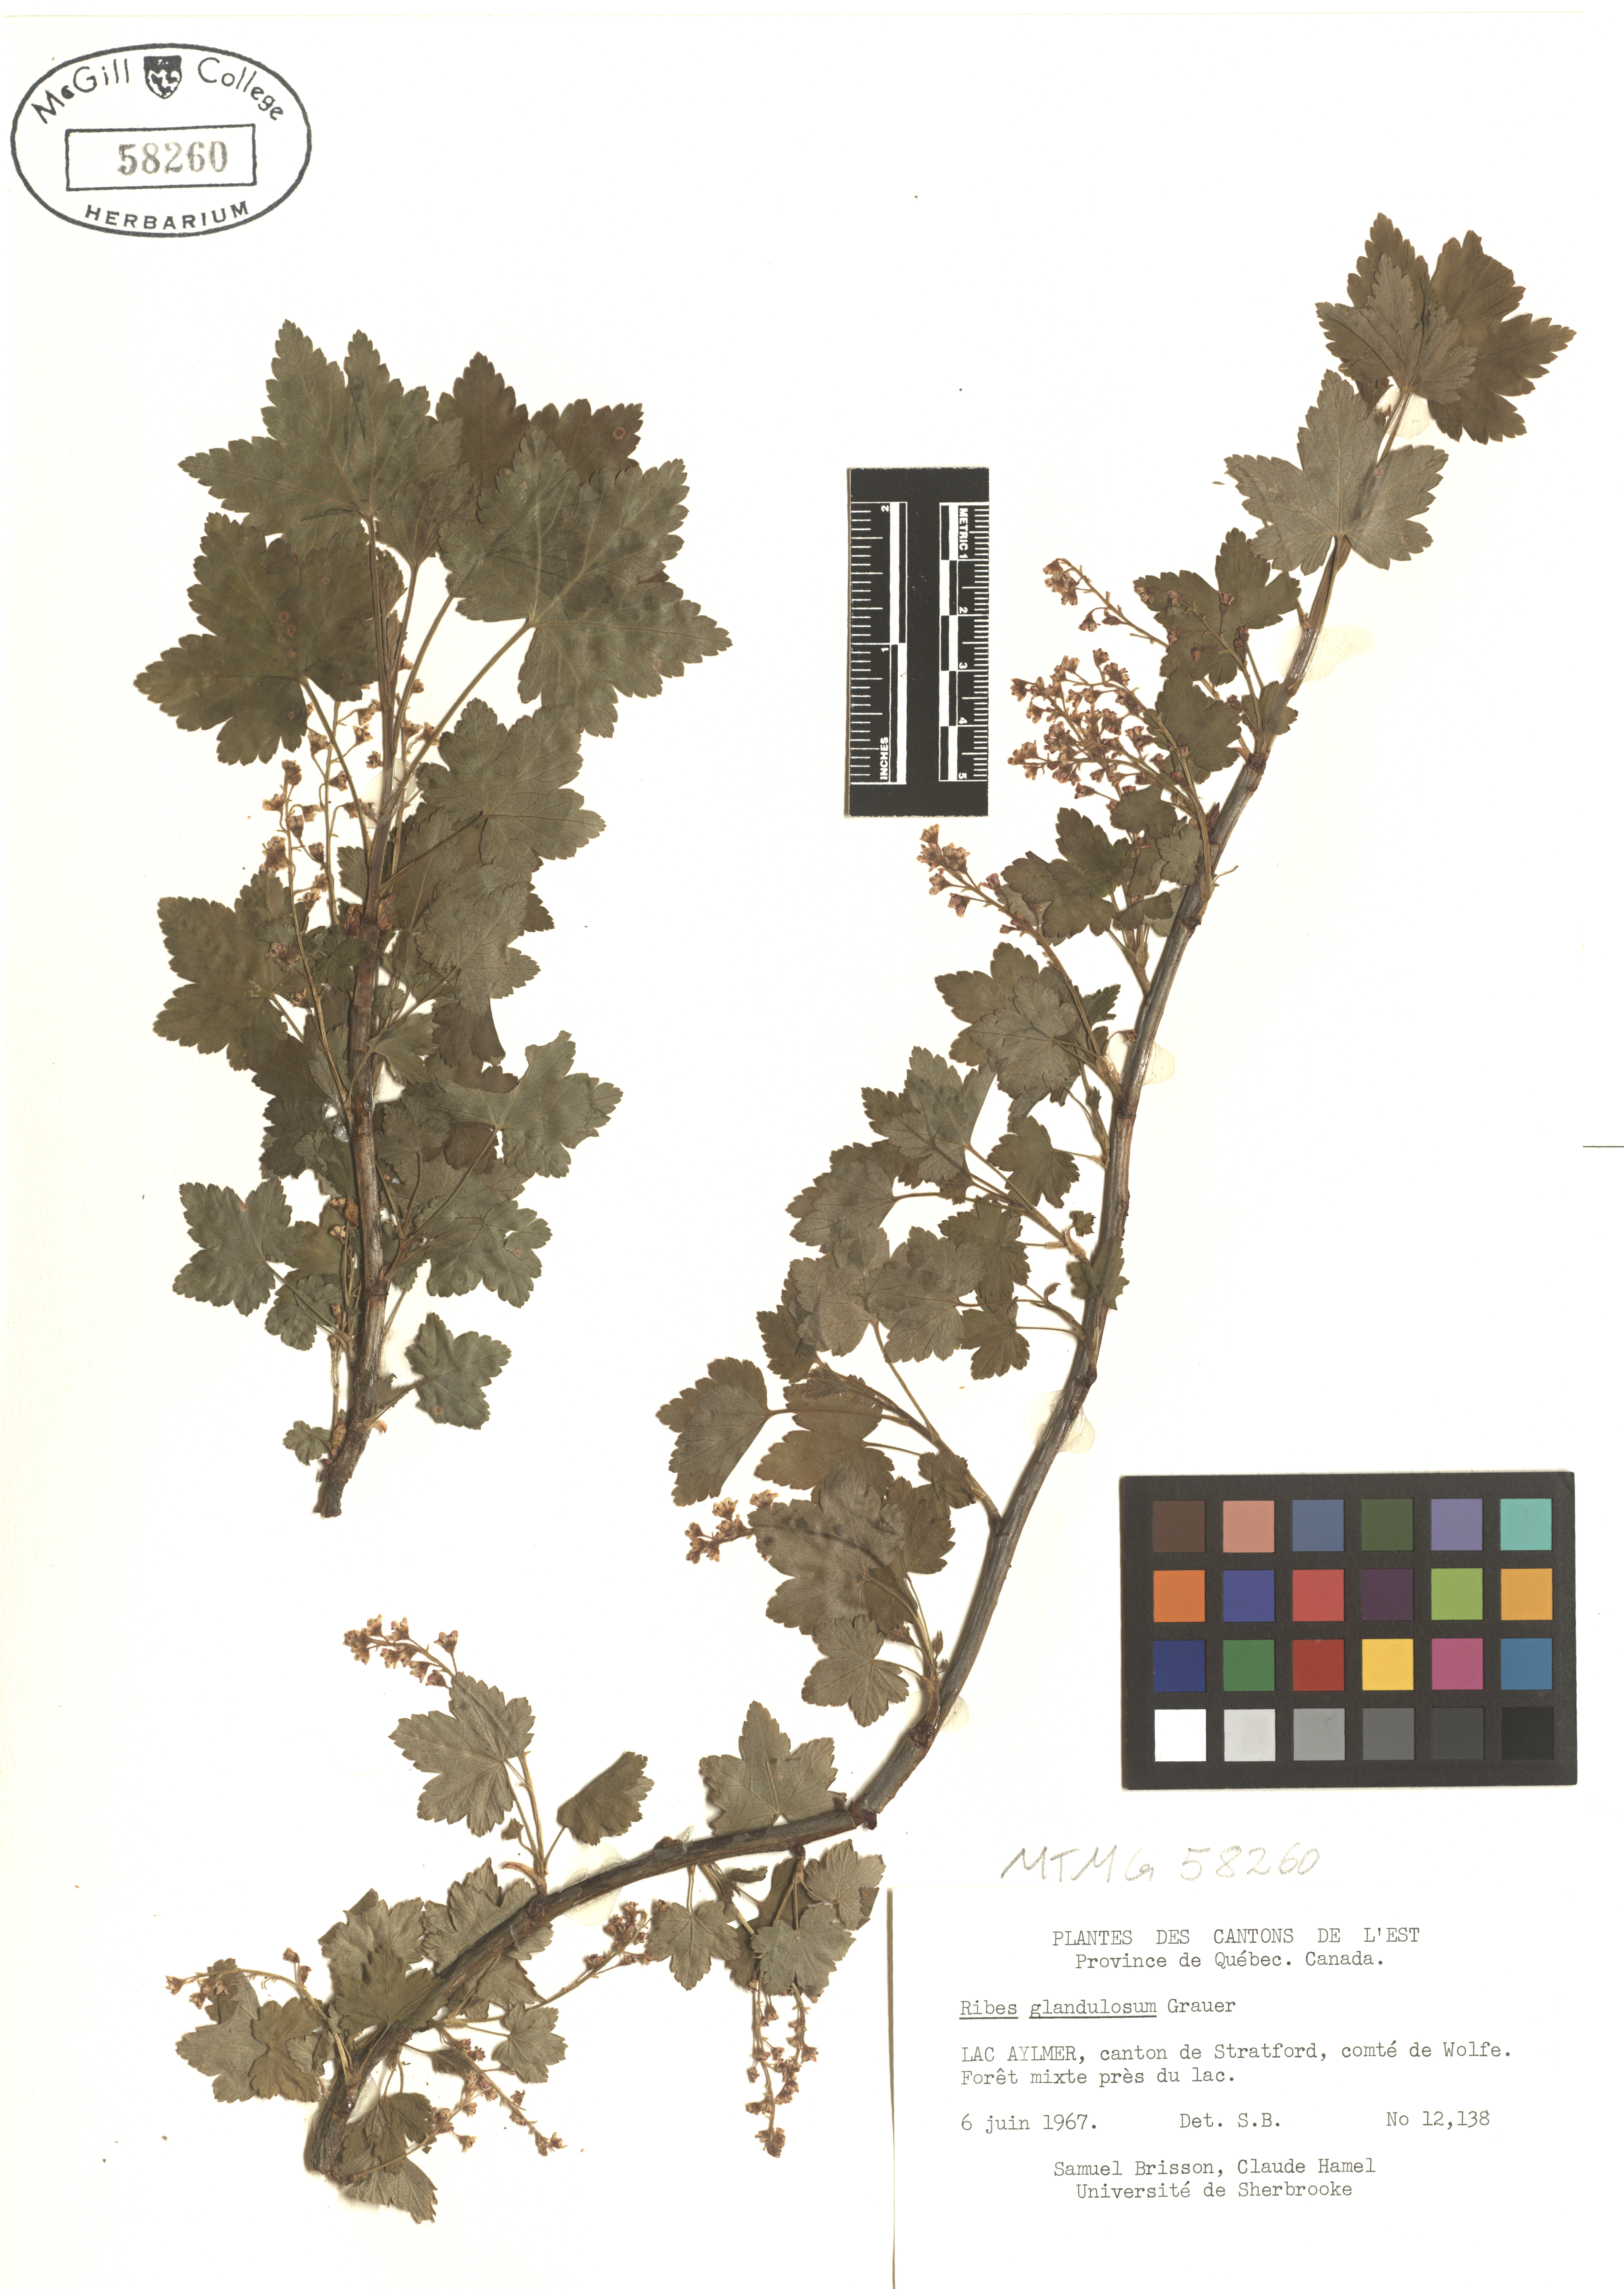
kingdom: Plantae
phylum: Tracheophyta
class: Magnoliopsida
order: Saxifragales
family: Grossulariaceae
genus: Ribes
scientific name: Ribes glandulosum
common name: Skunk currant
